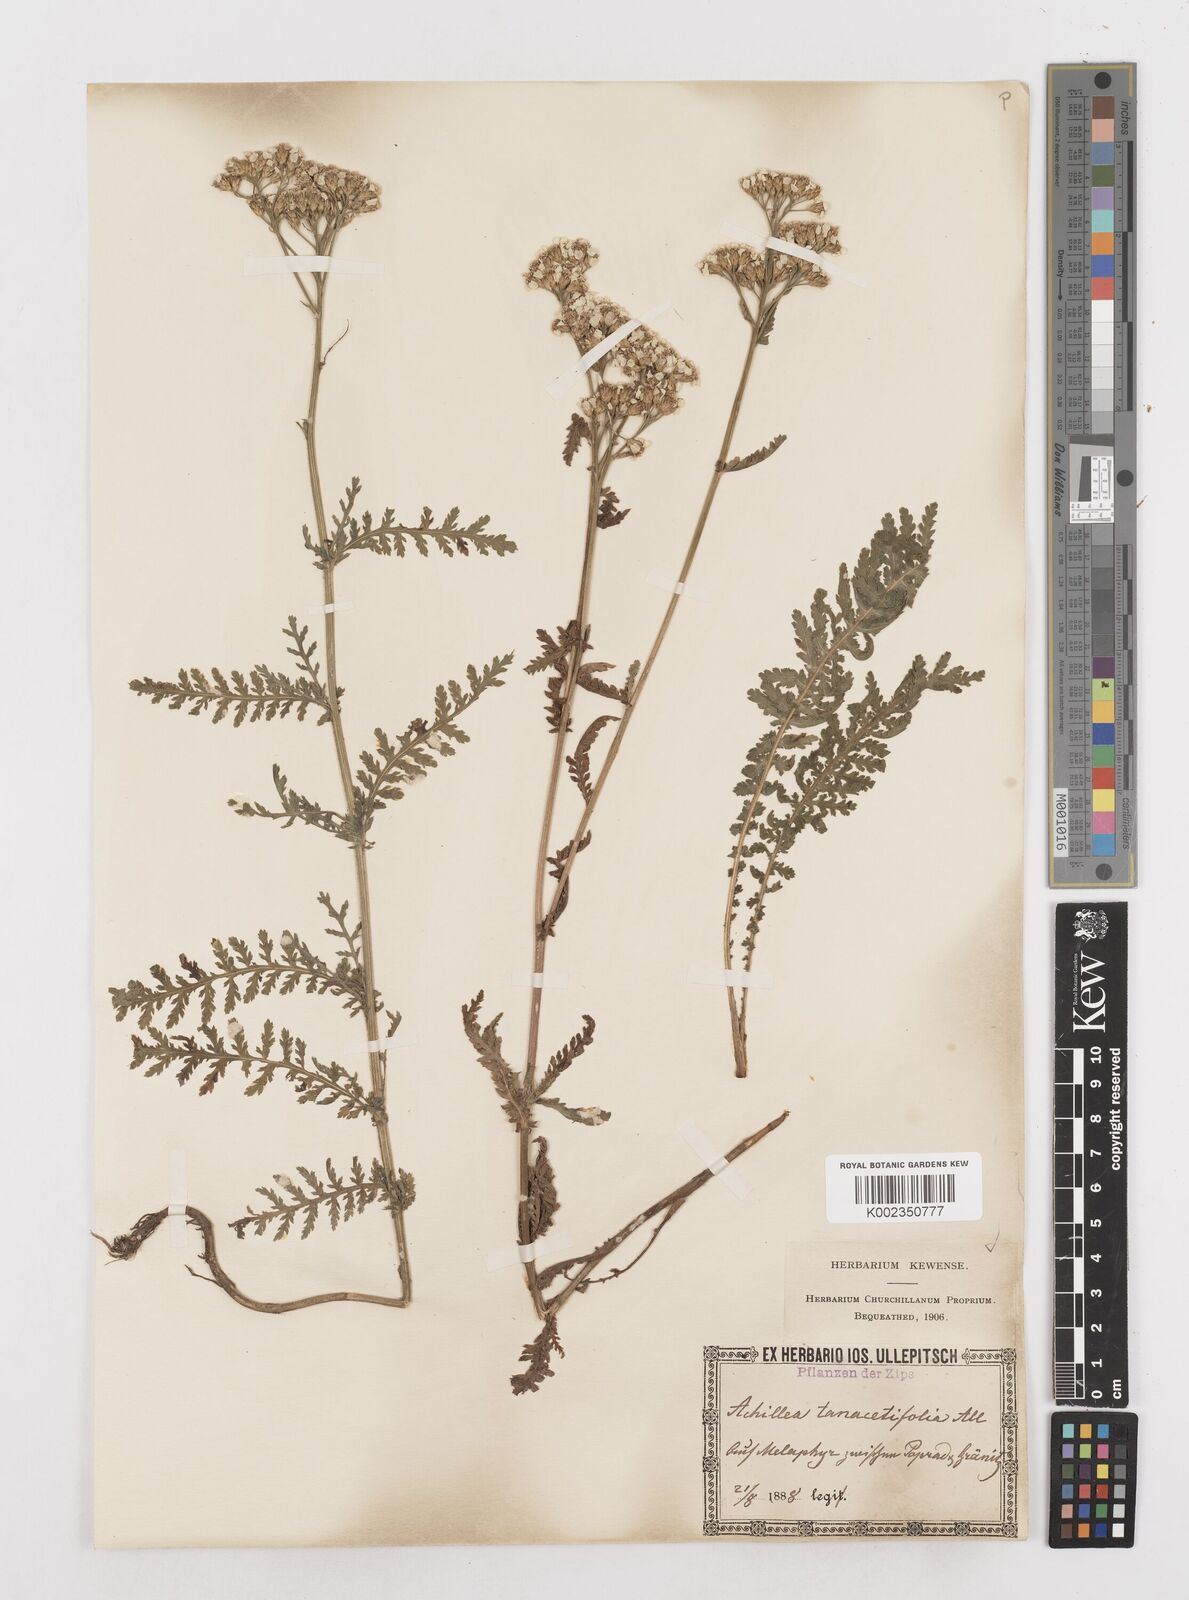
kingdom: Plantae
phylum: Tracheophyta
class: Magnoliopsida
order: Asterales
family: Asteraceae
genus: Achillea
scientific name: Achillea distans
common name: Tall yarrow
